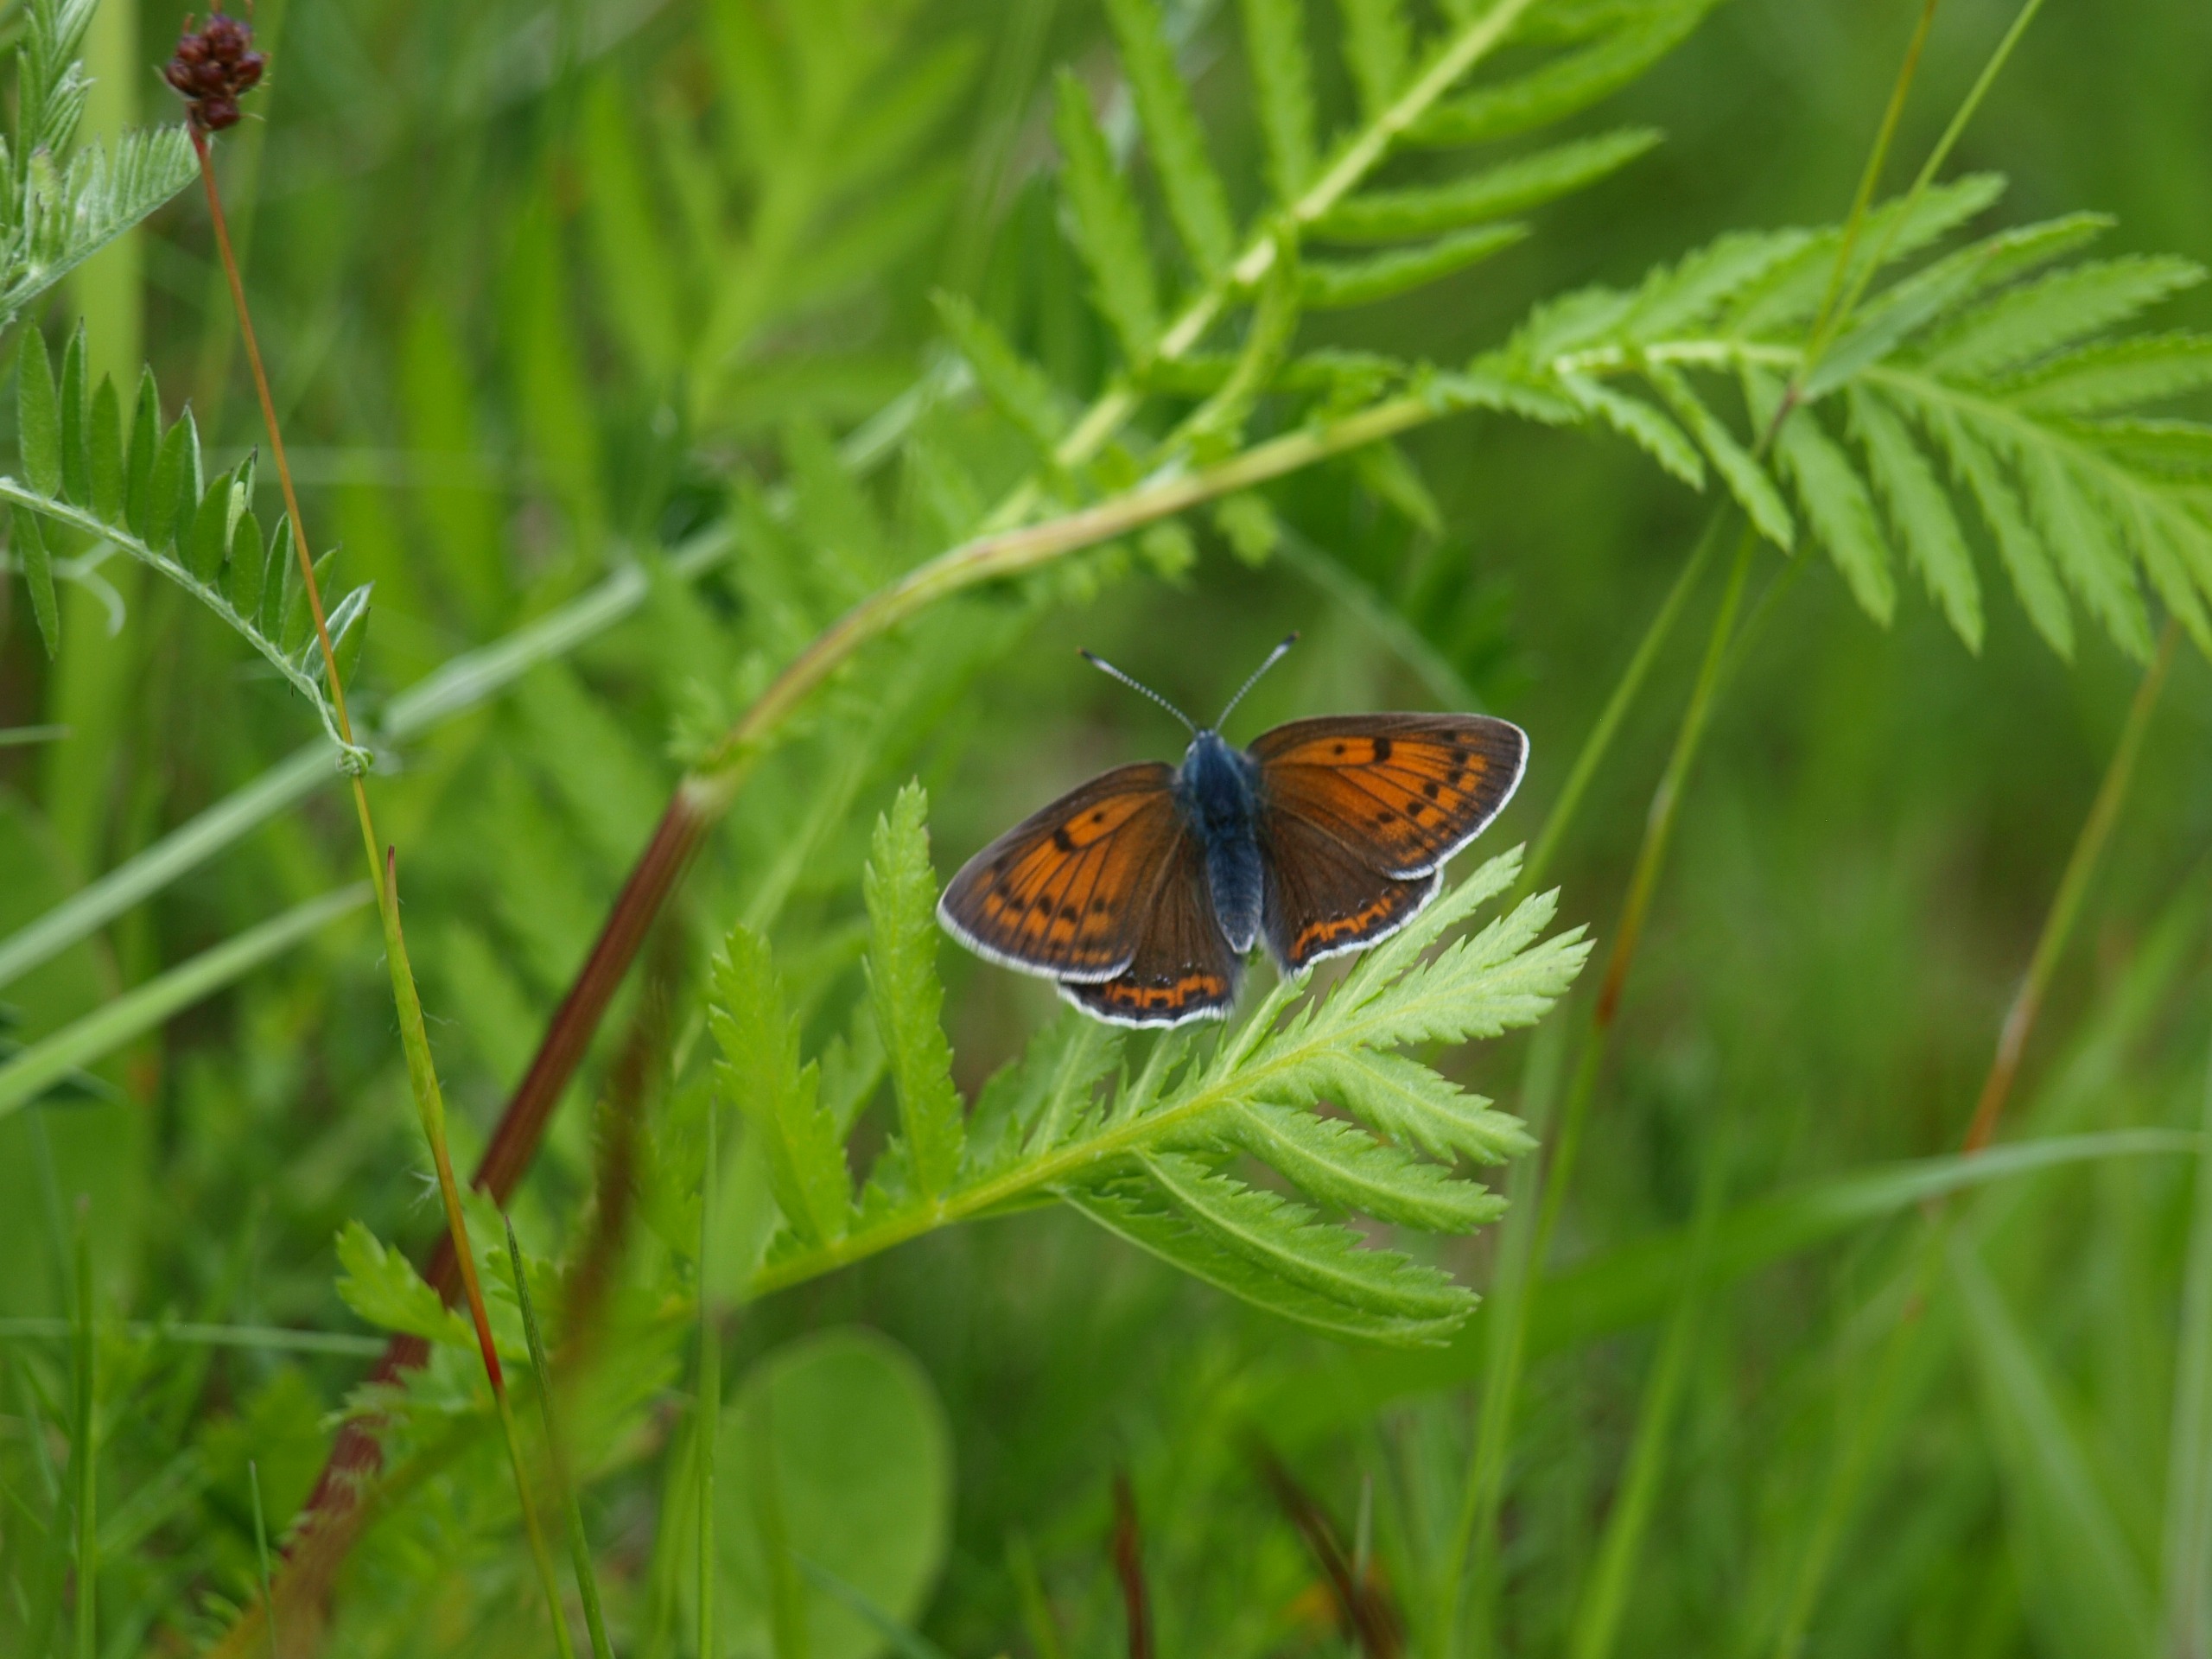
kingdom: Animalia
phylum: Arthropoda
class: Insecta
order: Lepidoptera
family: Lycaenidae
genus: Palaeochrysophanus
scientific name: Palaeochrysophanus hippothoe
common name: Violetrandet ildfugl
